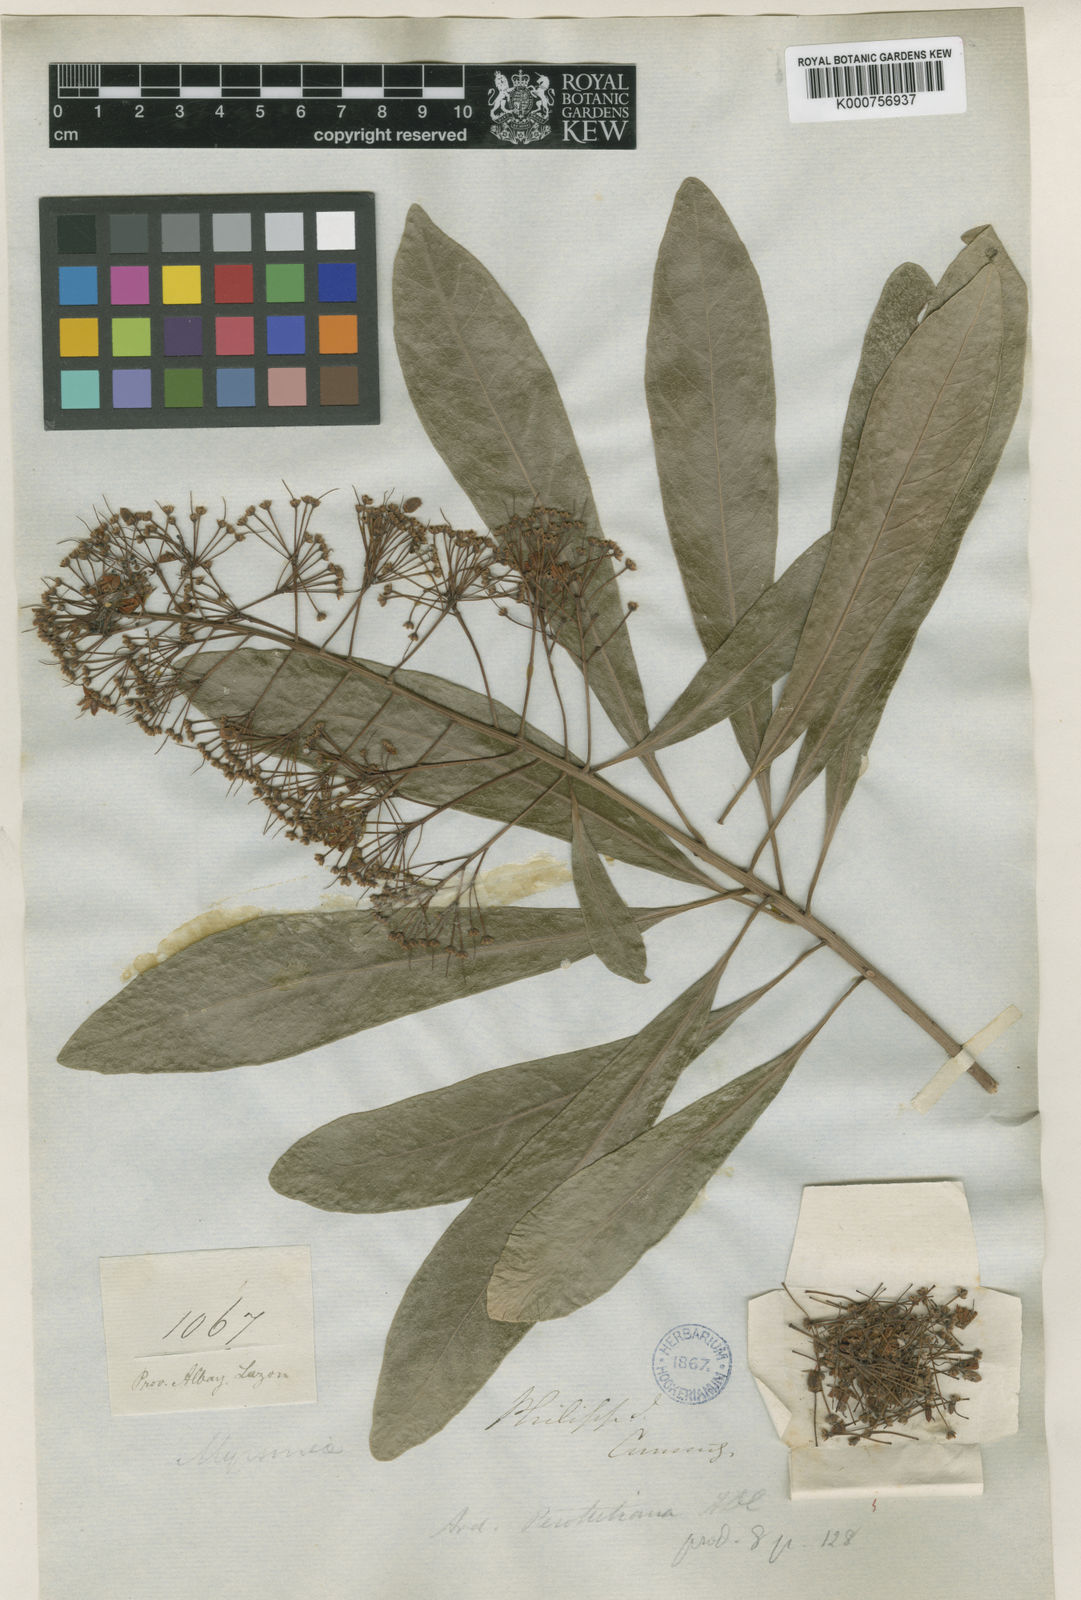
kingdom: Plantae
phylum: Tracheophyta
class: Magnoliopsida
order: Ericales
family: Primulaceae
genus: Ardisia
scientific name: Ardisia perrottetiana
